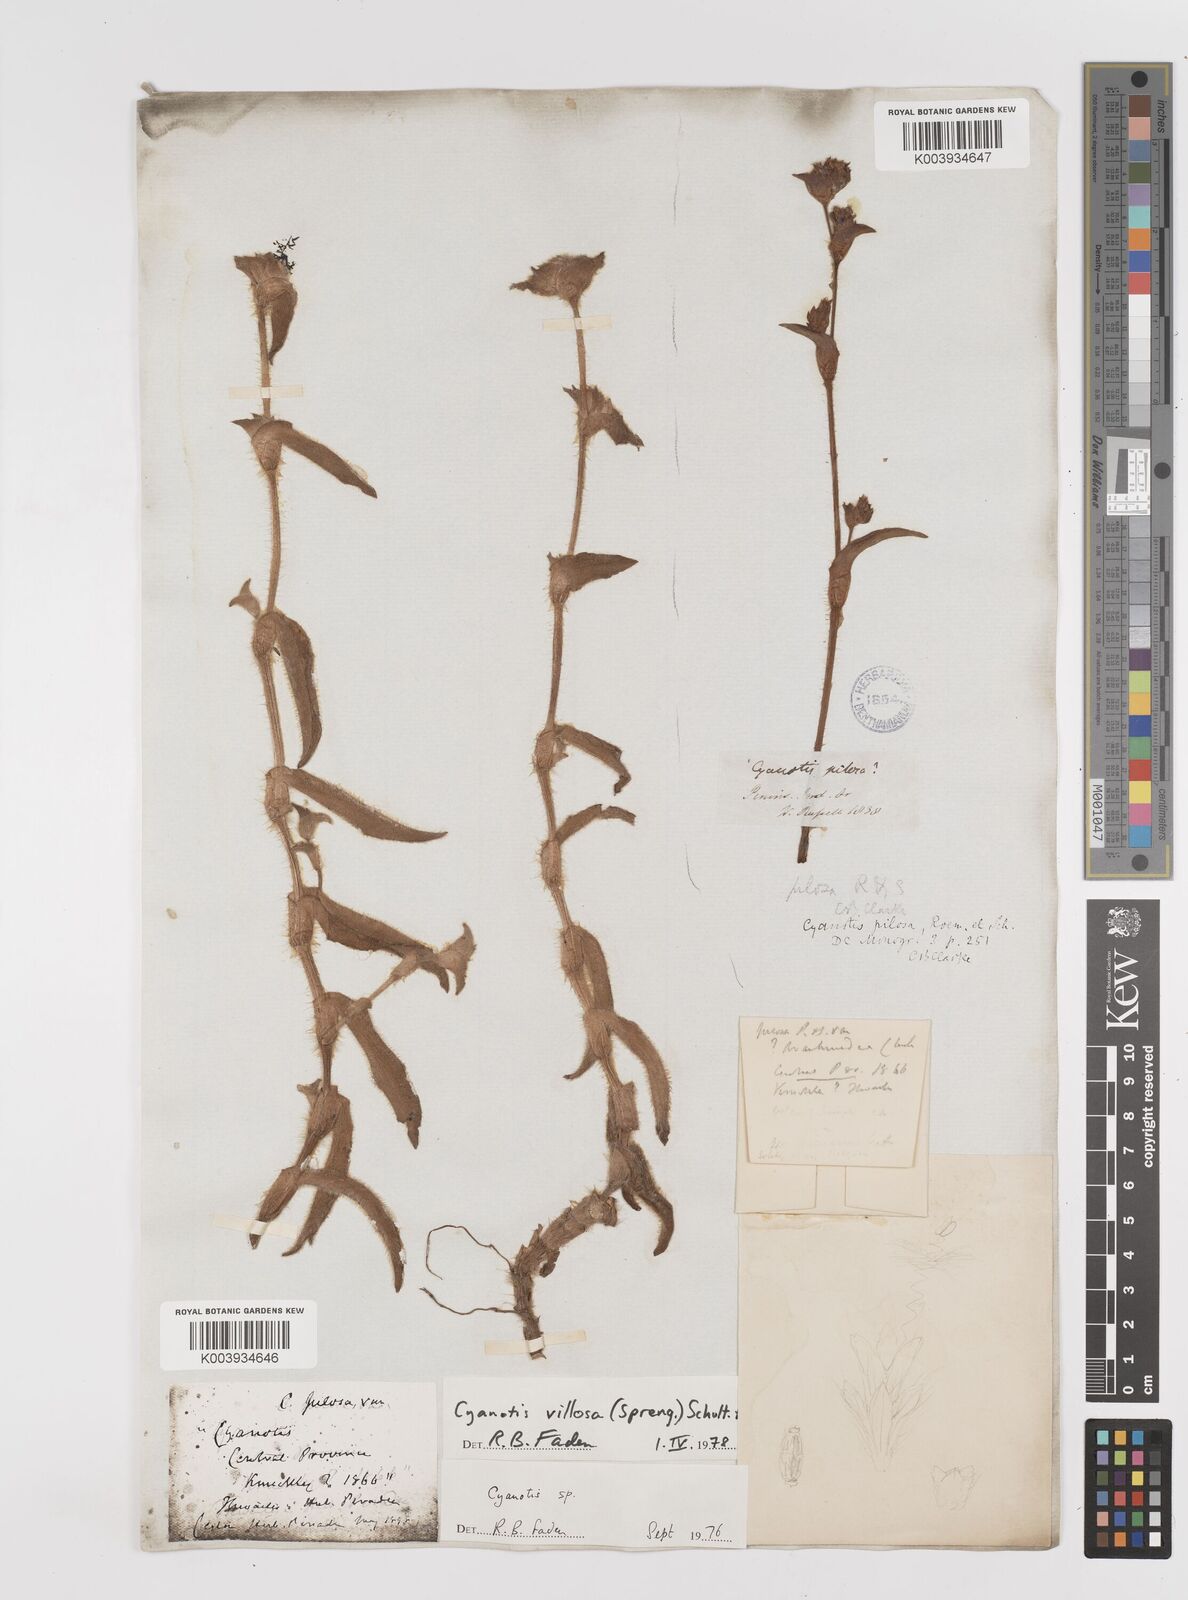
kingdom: Plantae
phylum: Tracheophyta
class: Liliopsida
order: Commelinales
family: Commelinaceae
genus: Cyanotis
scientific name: Cyanotis villosa
